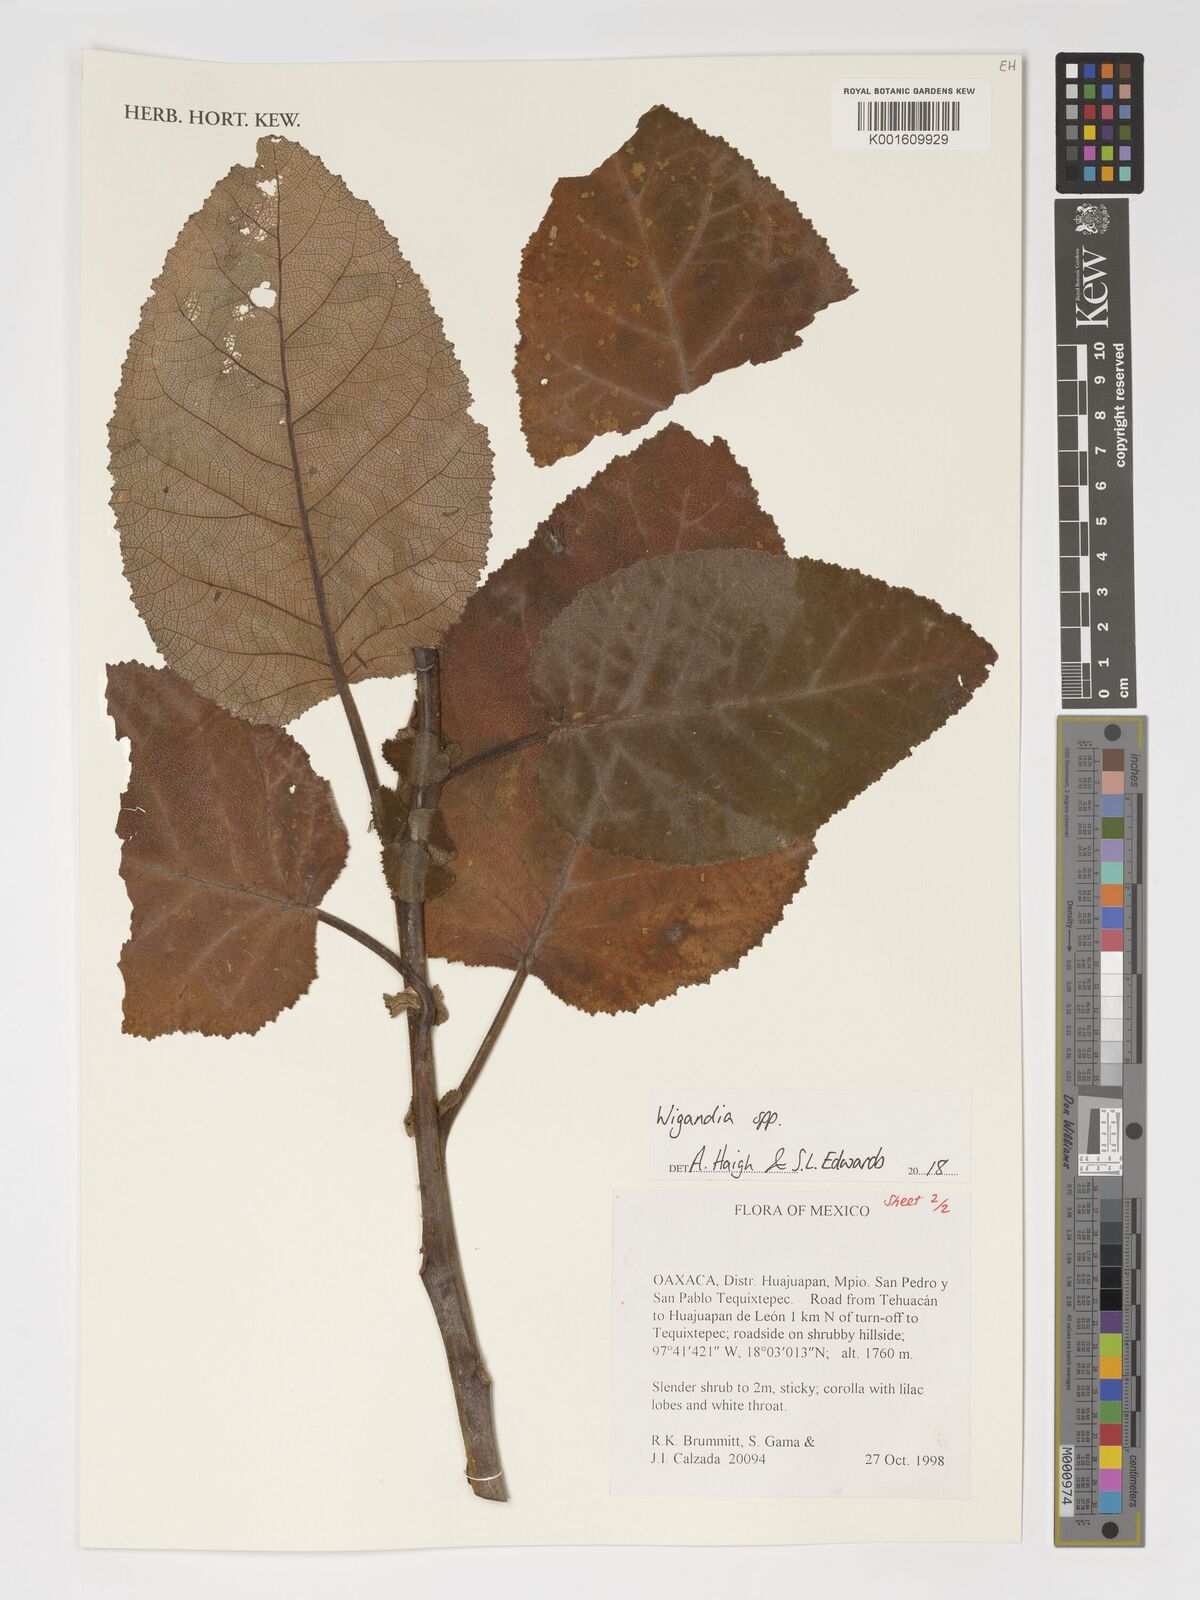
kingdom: Plantae
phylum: Tracheophyta
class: Magnoliopsida
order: Boraginales
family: Namaceae
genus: Wigandia
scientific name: Wigandia
